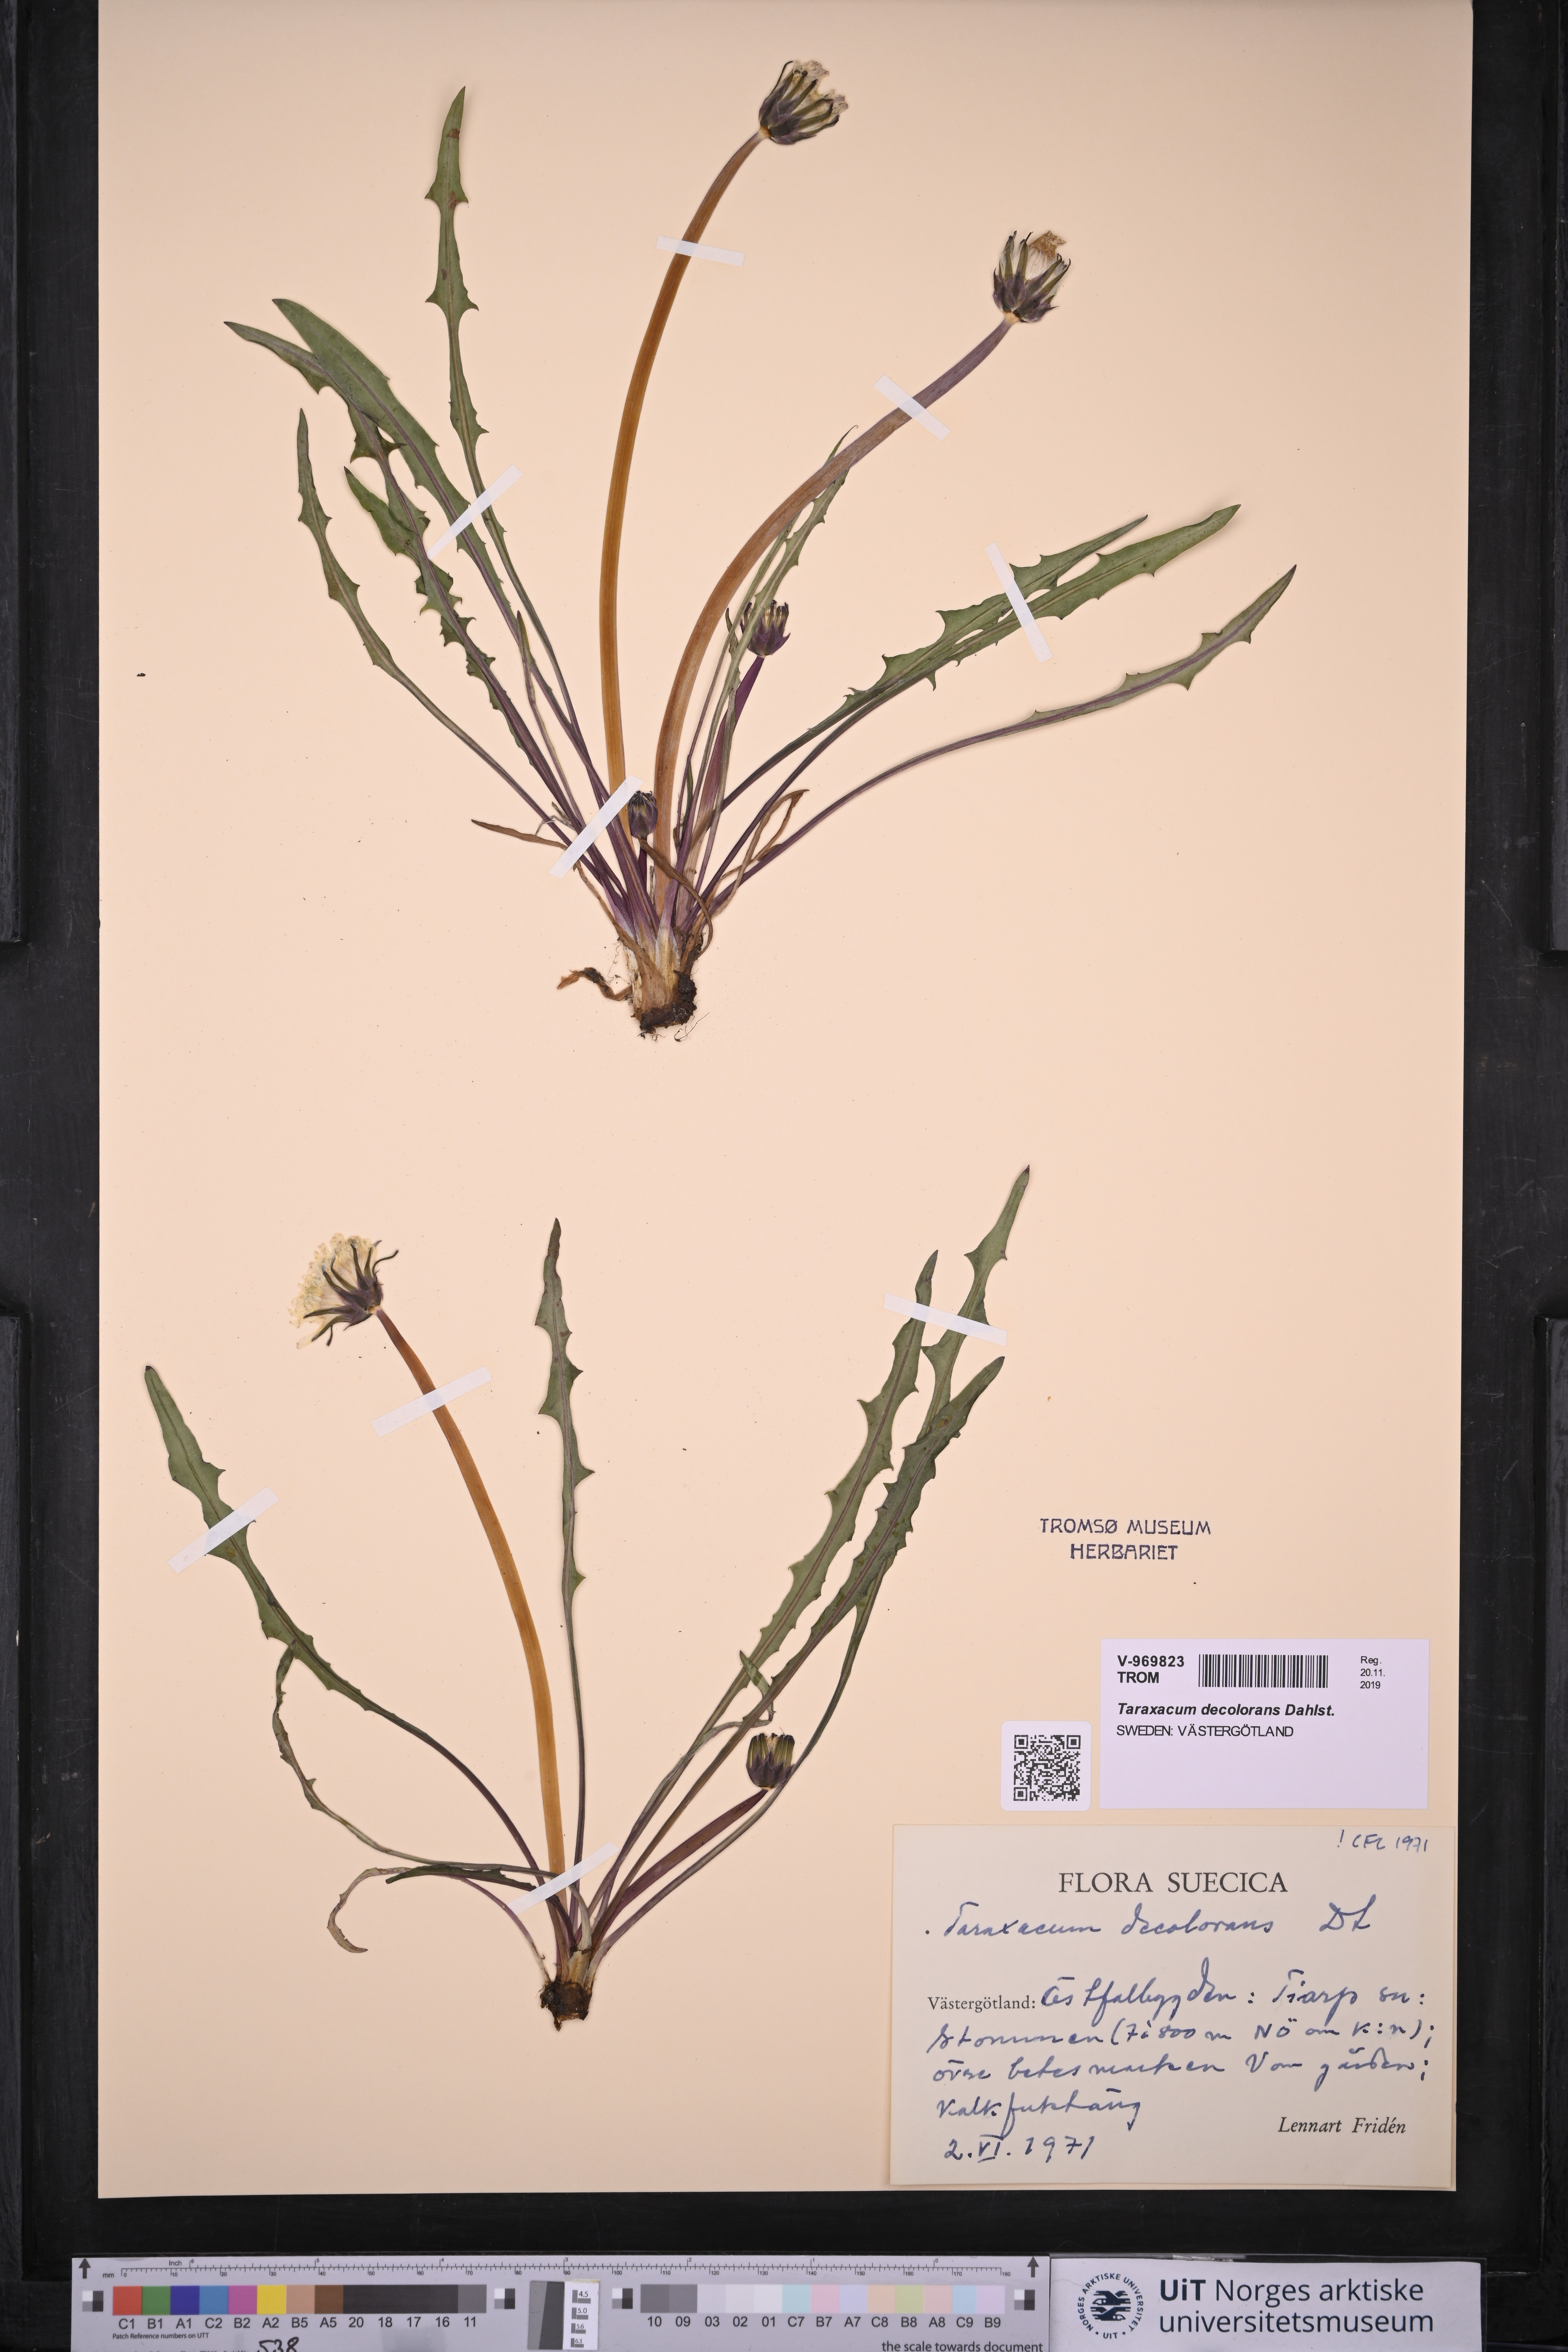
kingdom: Plantae
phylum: Tracheophyta
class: Magnoliopsida
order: Asterales
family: Asteraceae
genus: Taraxacum
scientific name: Taraxacum decolorans
